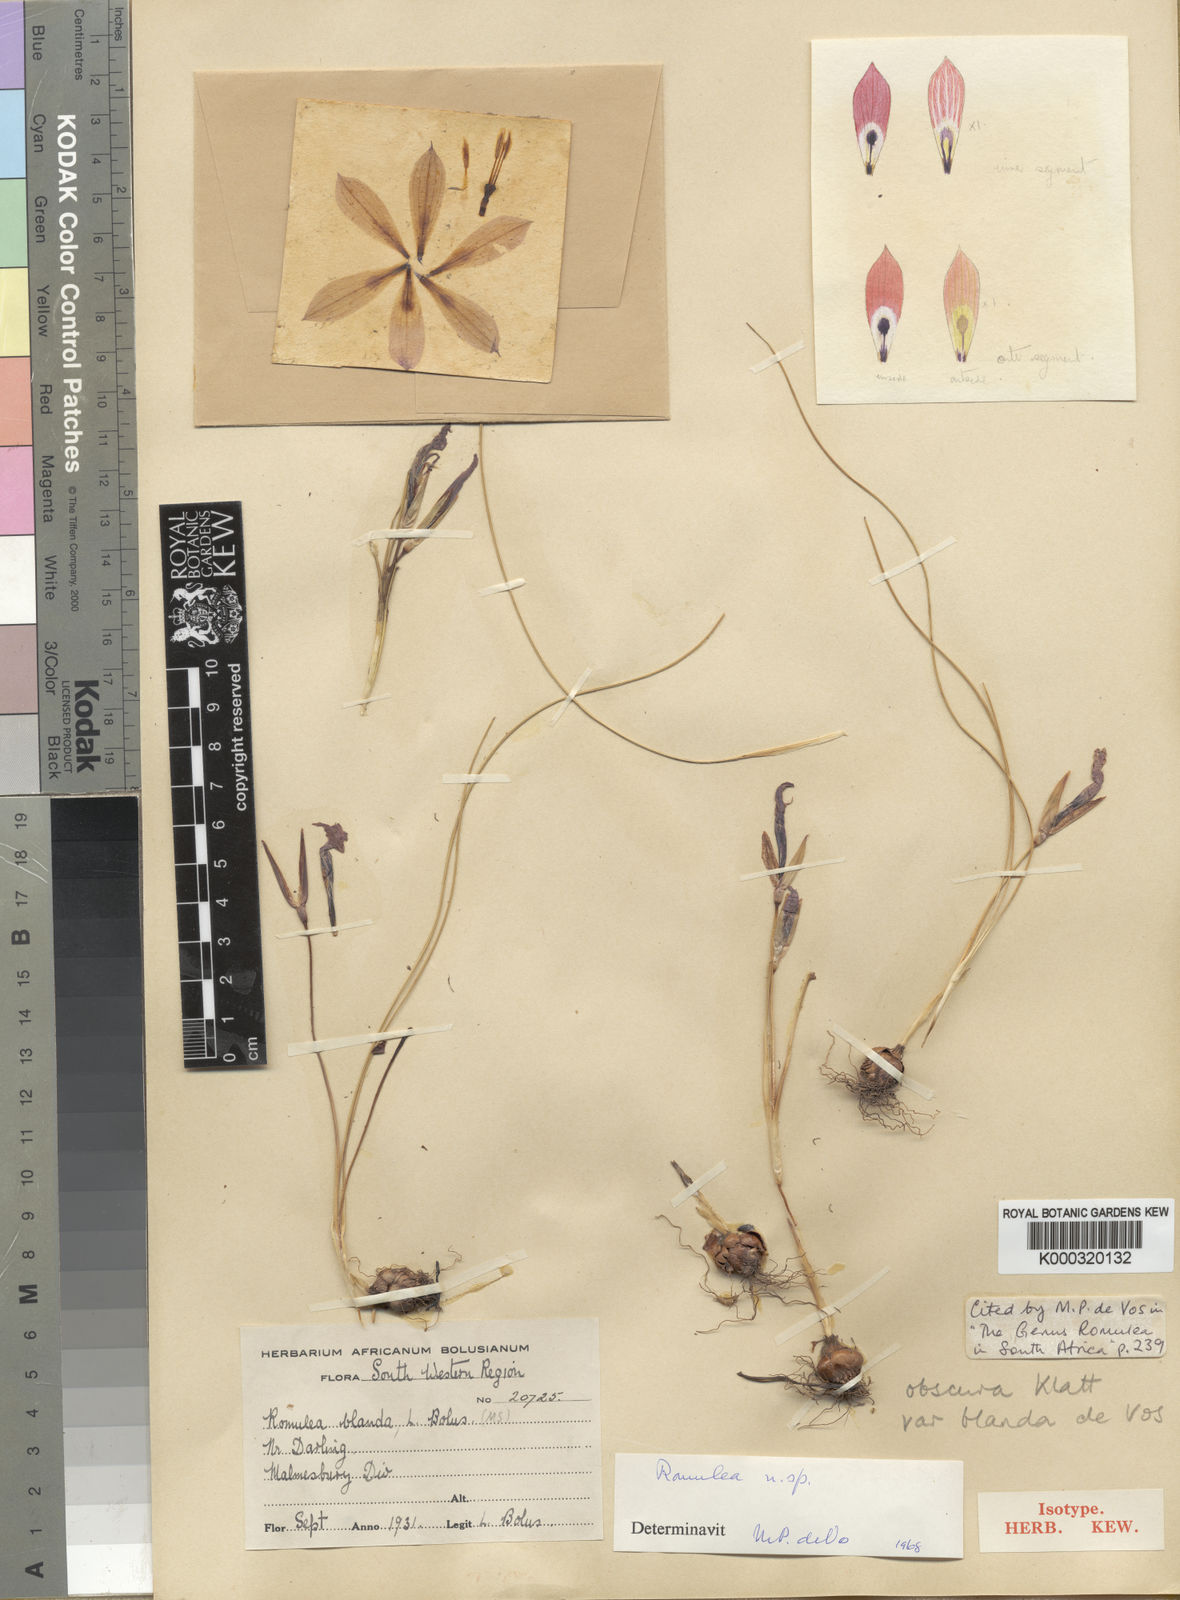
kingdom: Plantae
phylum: Tracheophyta
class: Liliopsida
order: Asparagales
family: Iridaceae
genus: Romulea
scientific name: Romulea obscura
